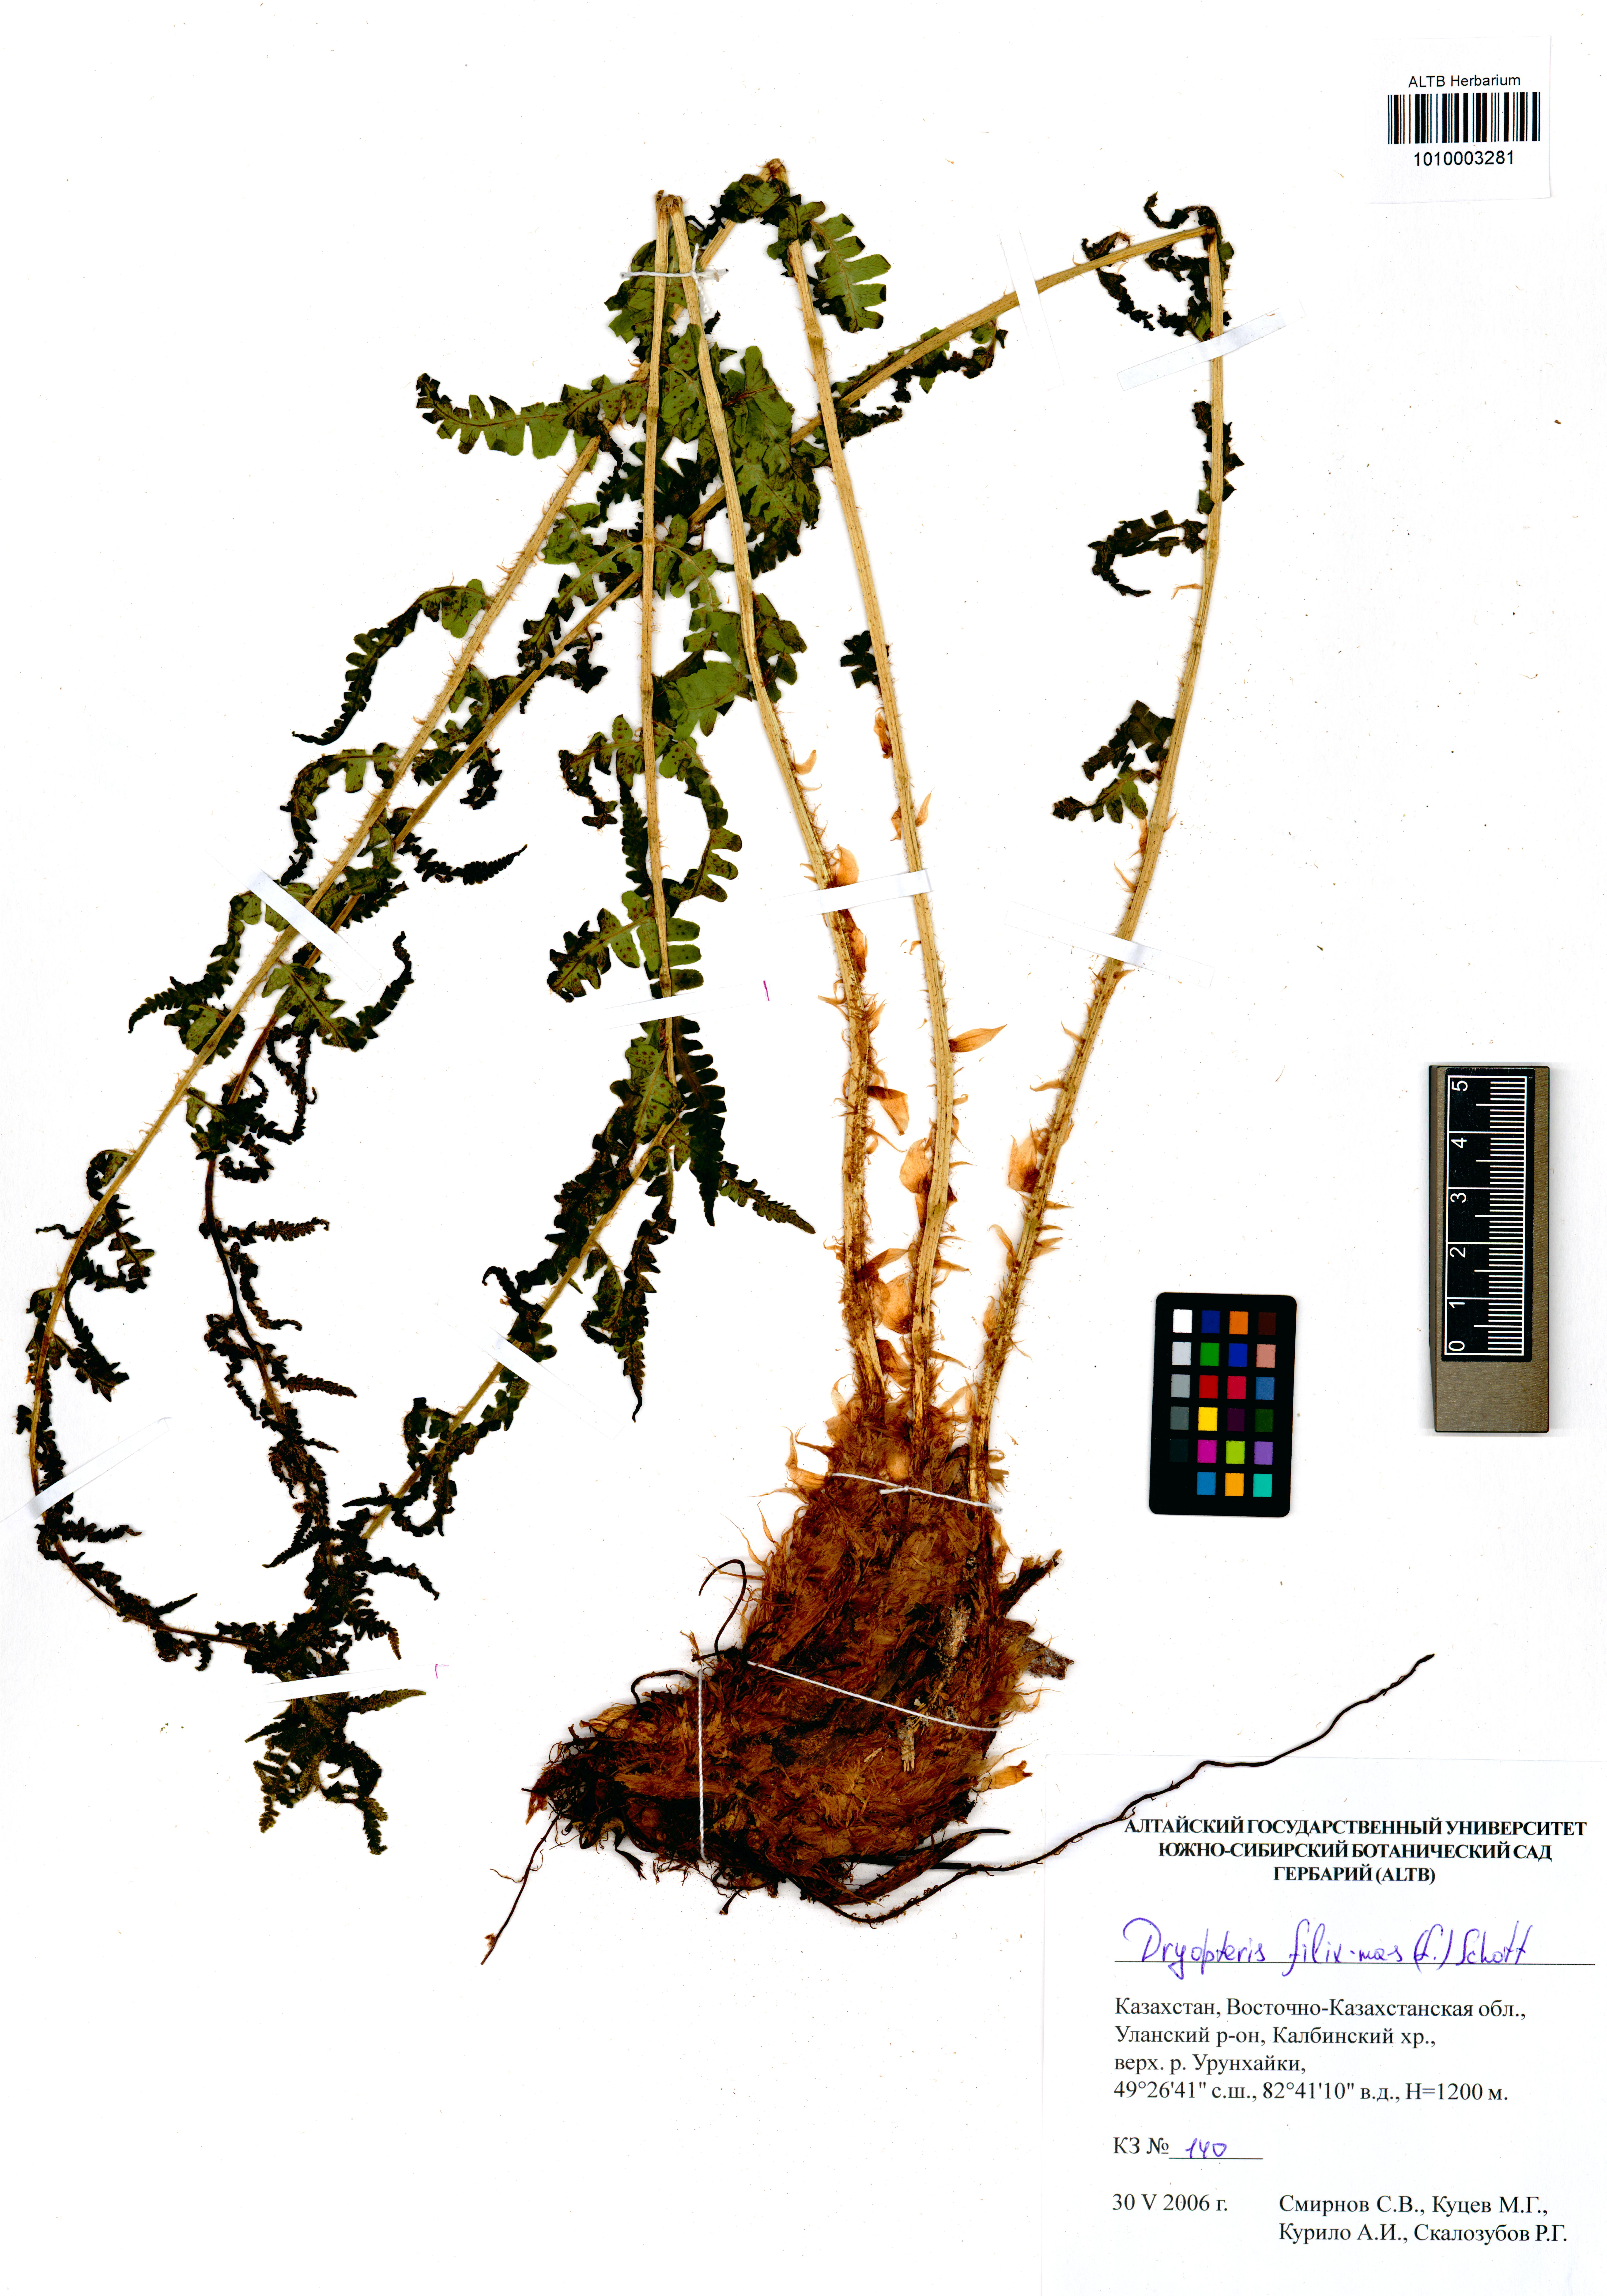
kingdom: Plantae
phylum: Tracheophyta
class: Polypodiopsida
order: Polypodiales
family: Dryopteridaceae
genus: Dryopteris
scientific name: Dryopteris filix-mas
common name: Male fern
